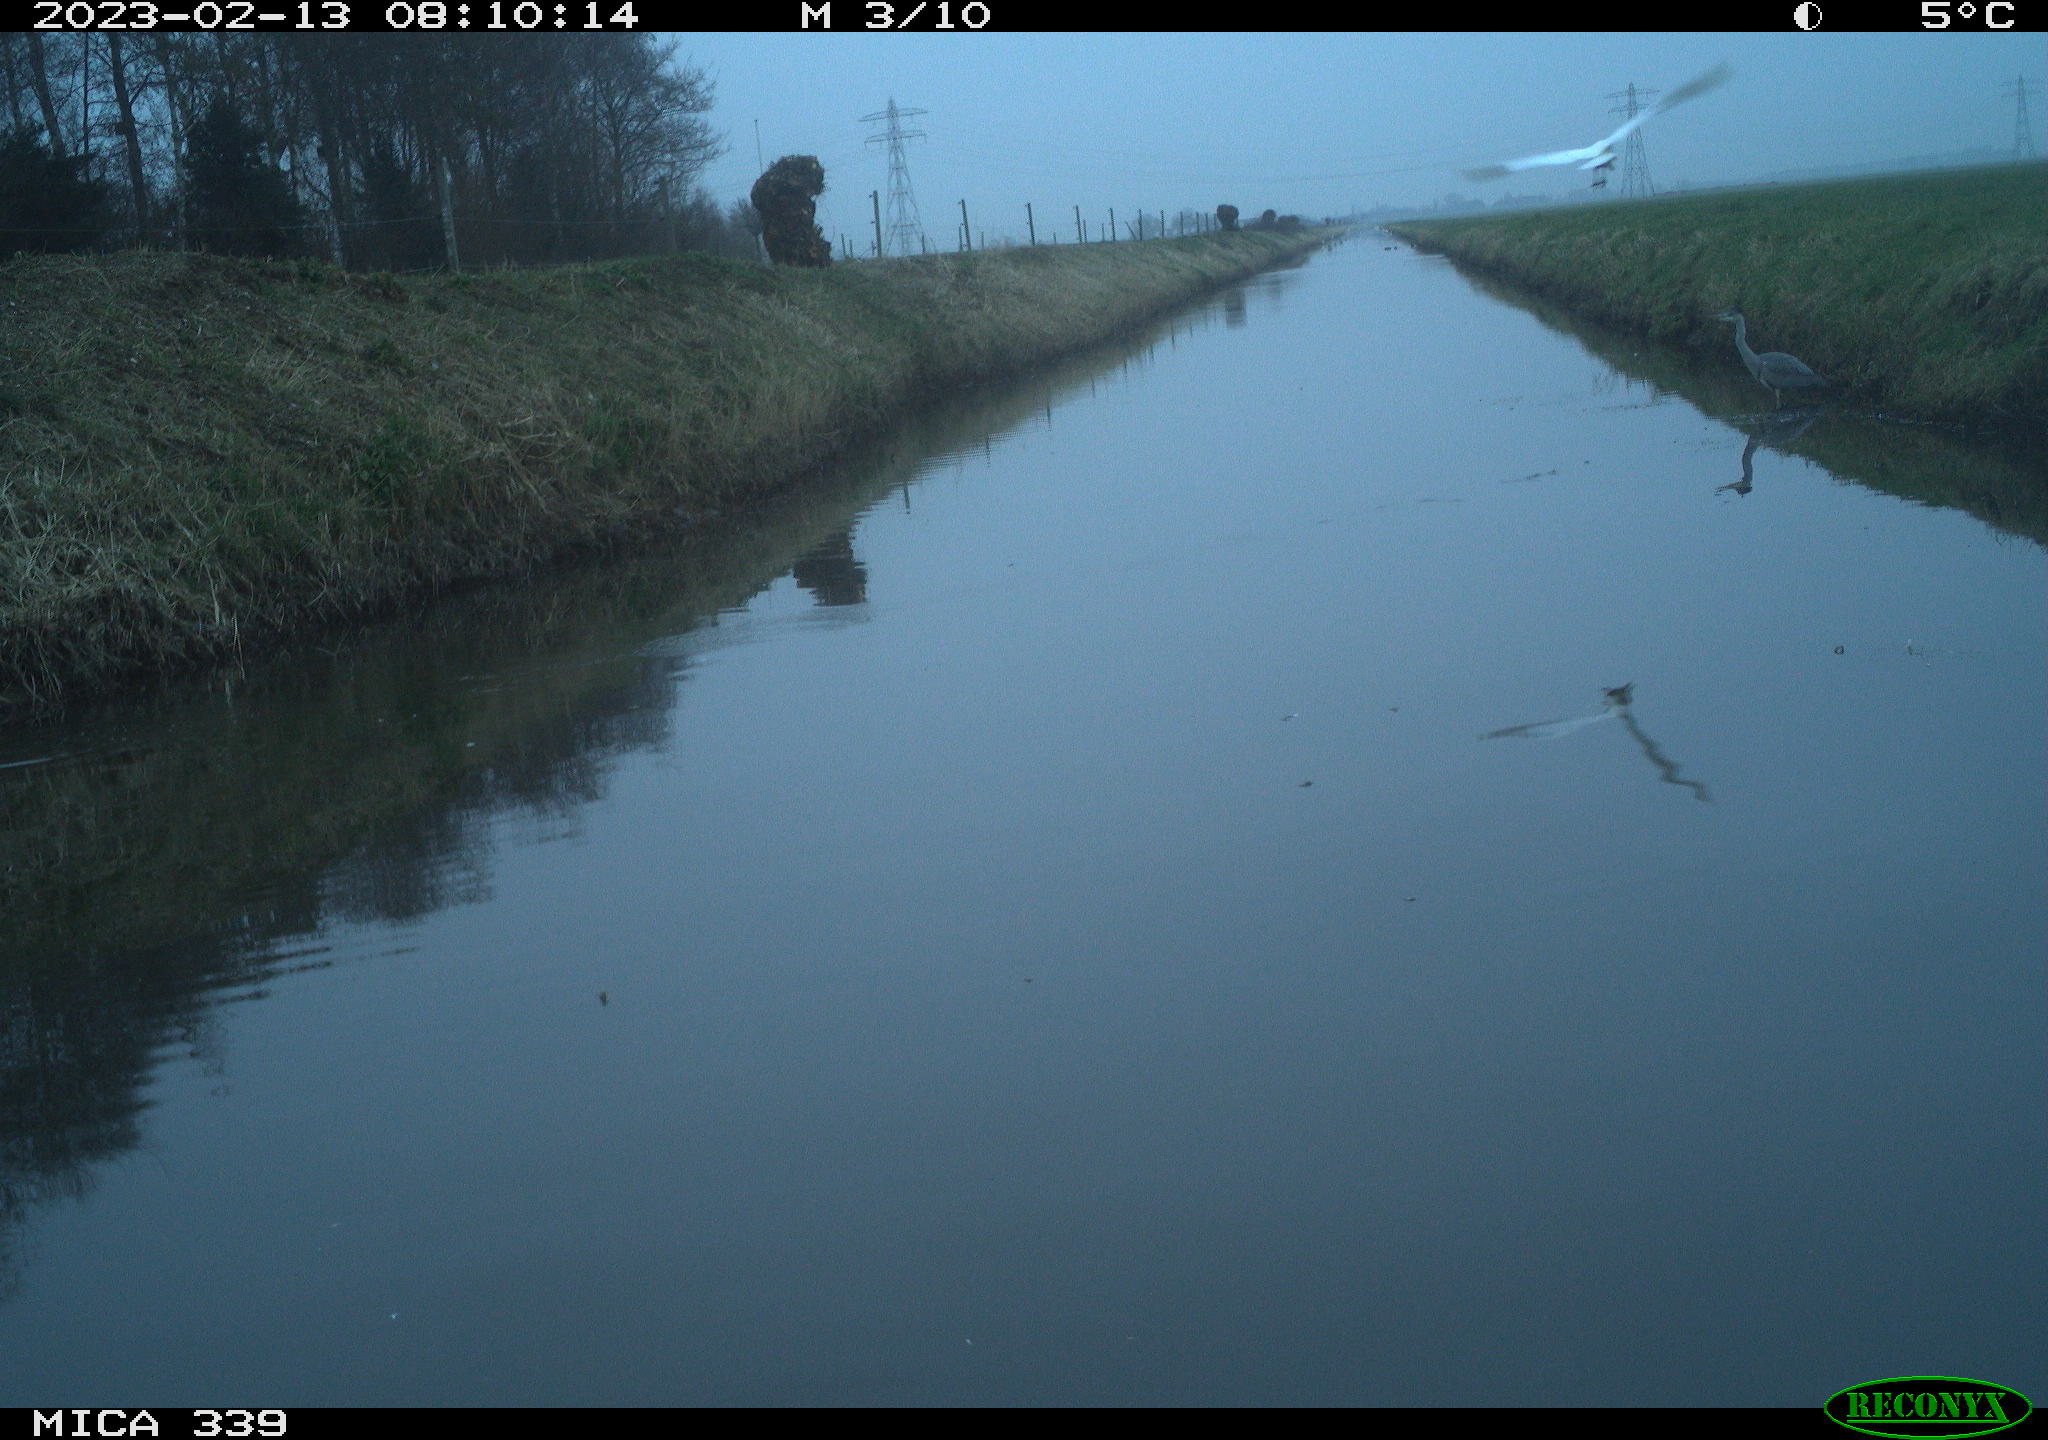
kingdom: Animalia
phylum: Chordata
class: Aves
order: Pelecaniformes
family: Ardeidae
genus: Ardea
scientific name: Ardea alba
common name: Great egret
